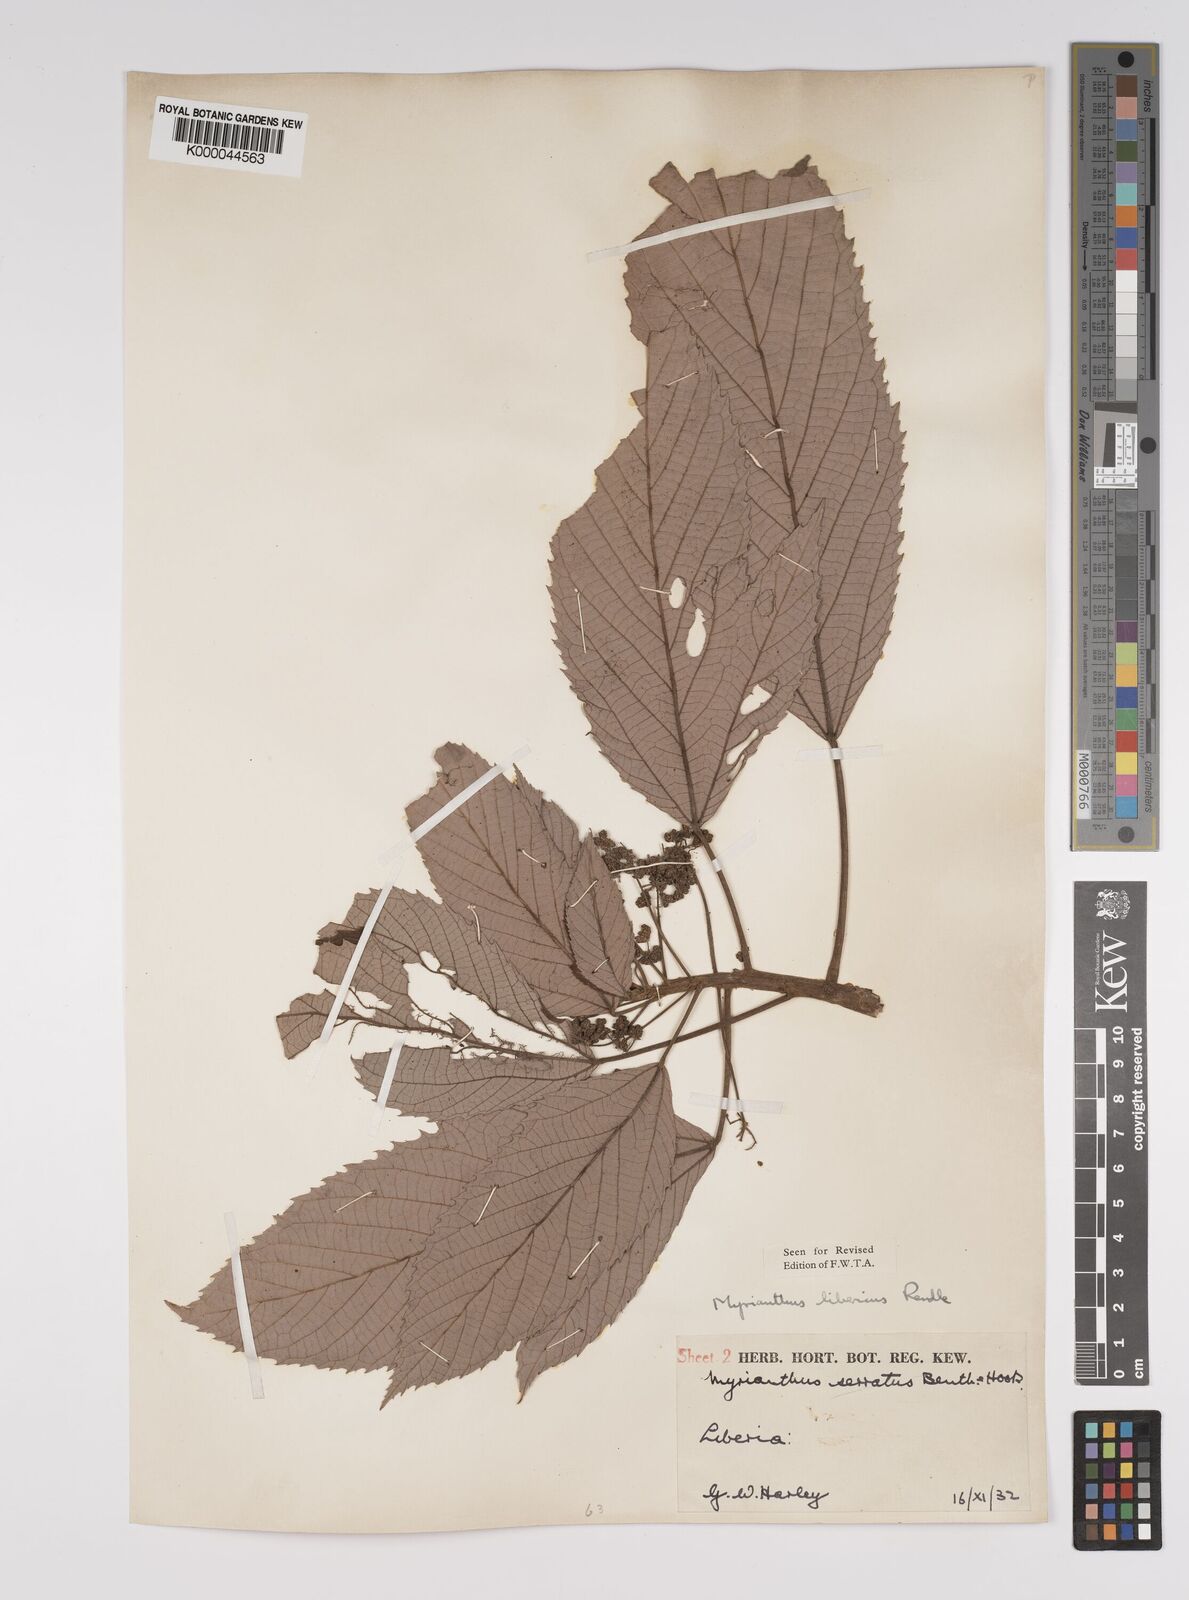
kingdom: Plantae
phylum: Tracheophyta
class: Magnoliopsida
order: Rosales
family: Urticaceae
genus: Myrianthus
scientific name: Myrianthus libericus
